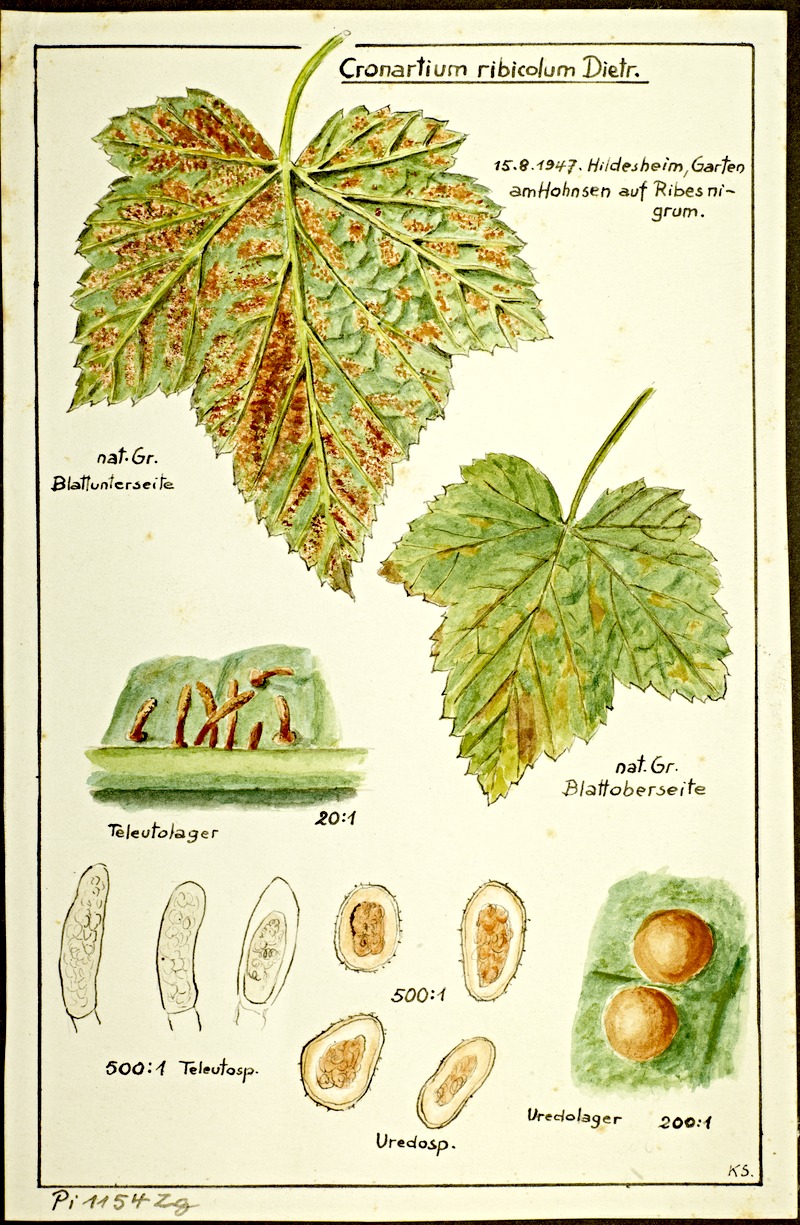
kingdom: Fungi
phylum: Basidiomycota
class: Pucciniomycetes
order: Pucciniales
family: Cronartiaceae
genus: Cronartium
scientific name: Cronartium ribicola
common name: White pine blister rust
